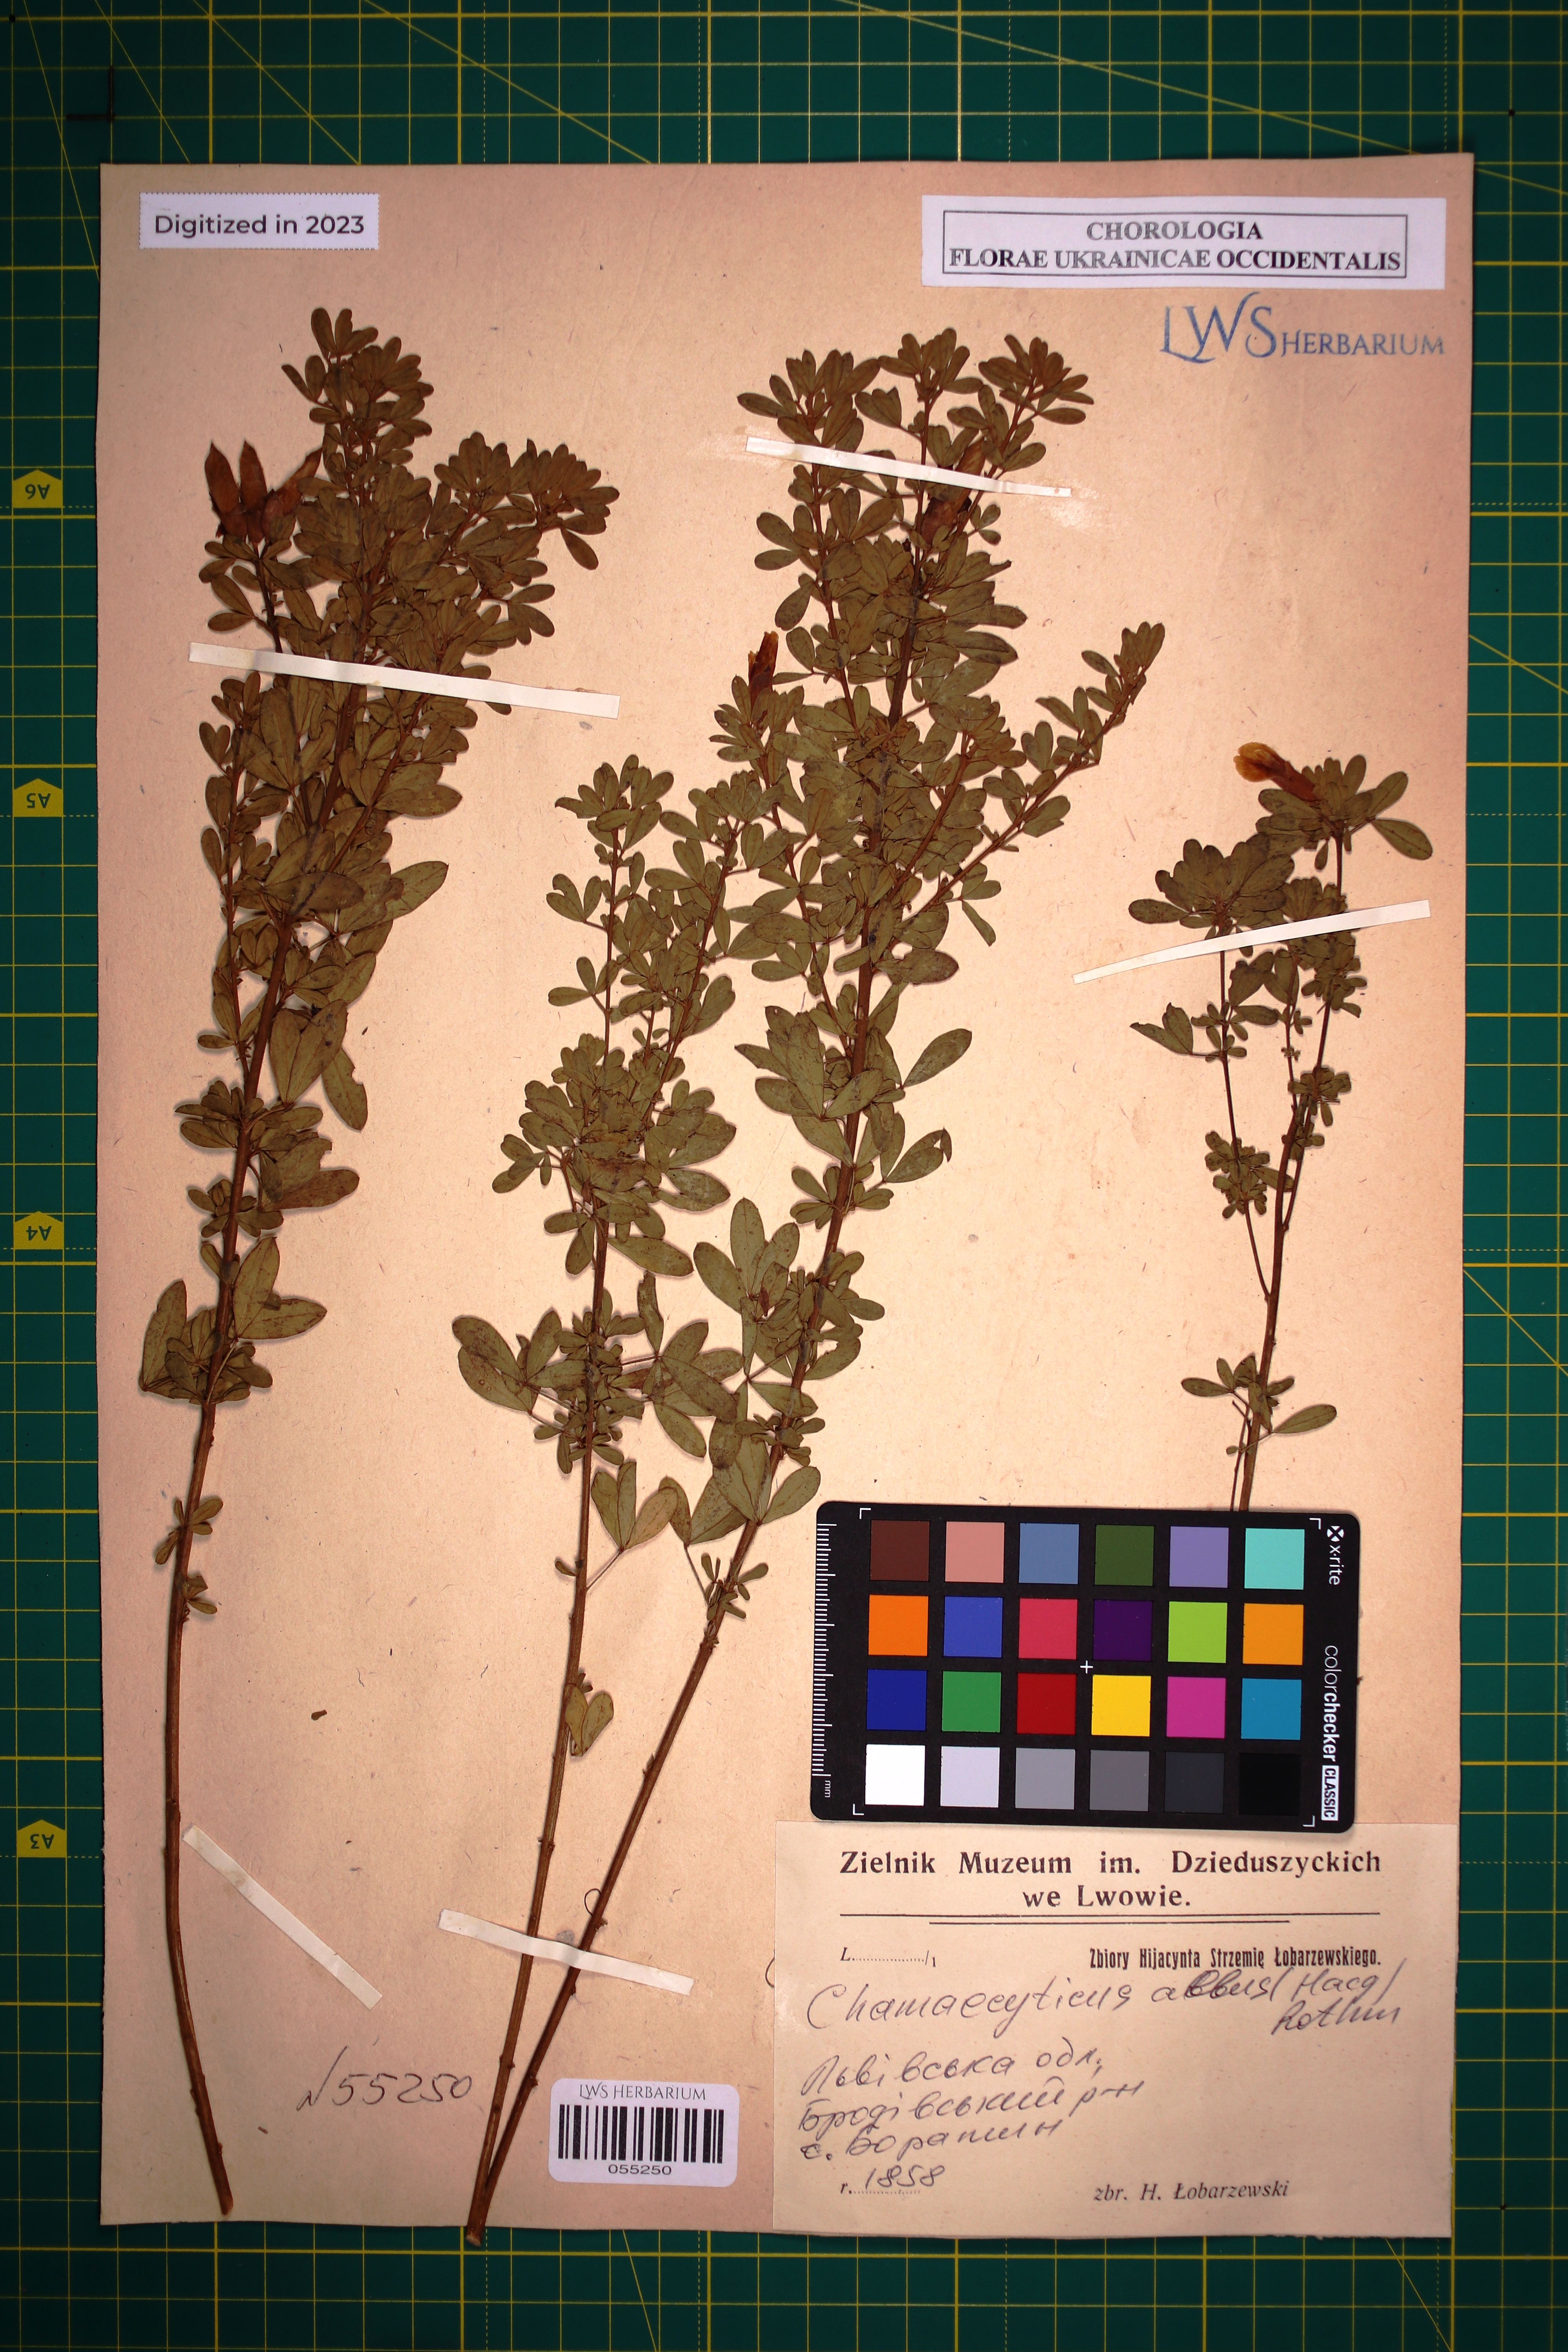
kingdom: Plantae
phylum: Tracheophyta
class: Magnoliopsida
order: Fabales
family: Fabaceae
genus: Chamaecytisus
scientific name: Chamaecytisus albus
